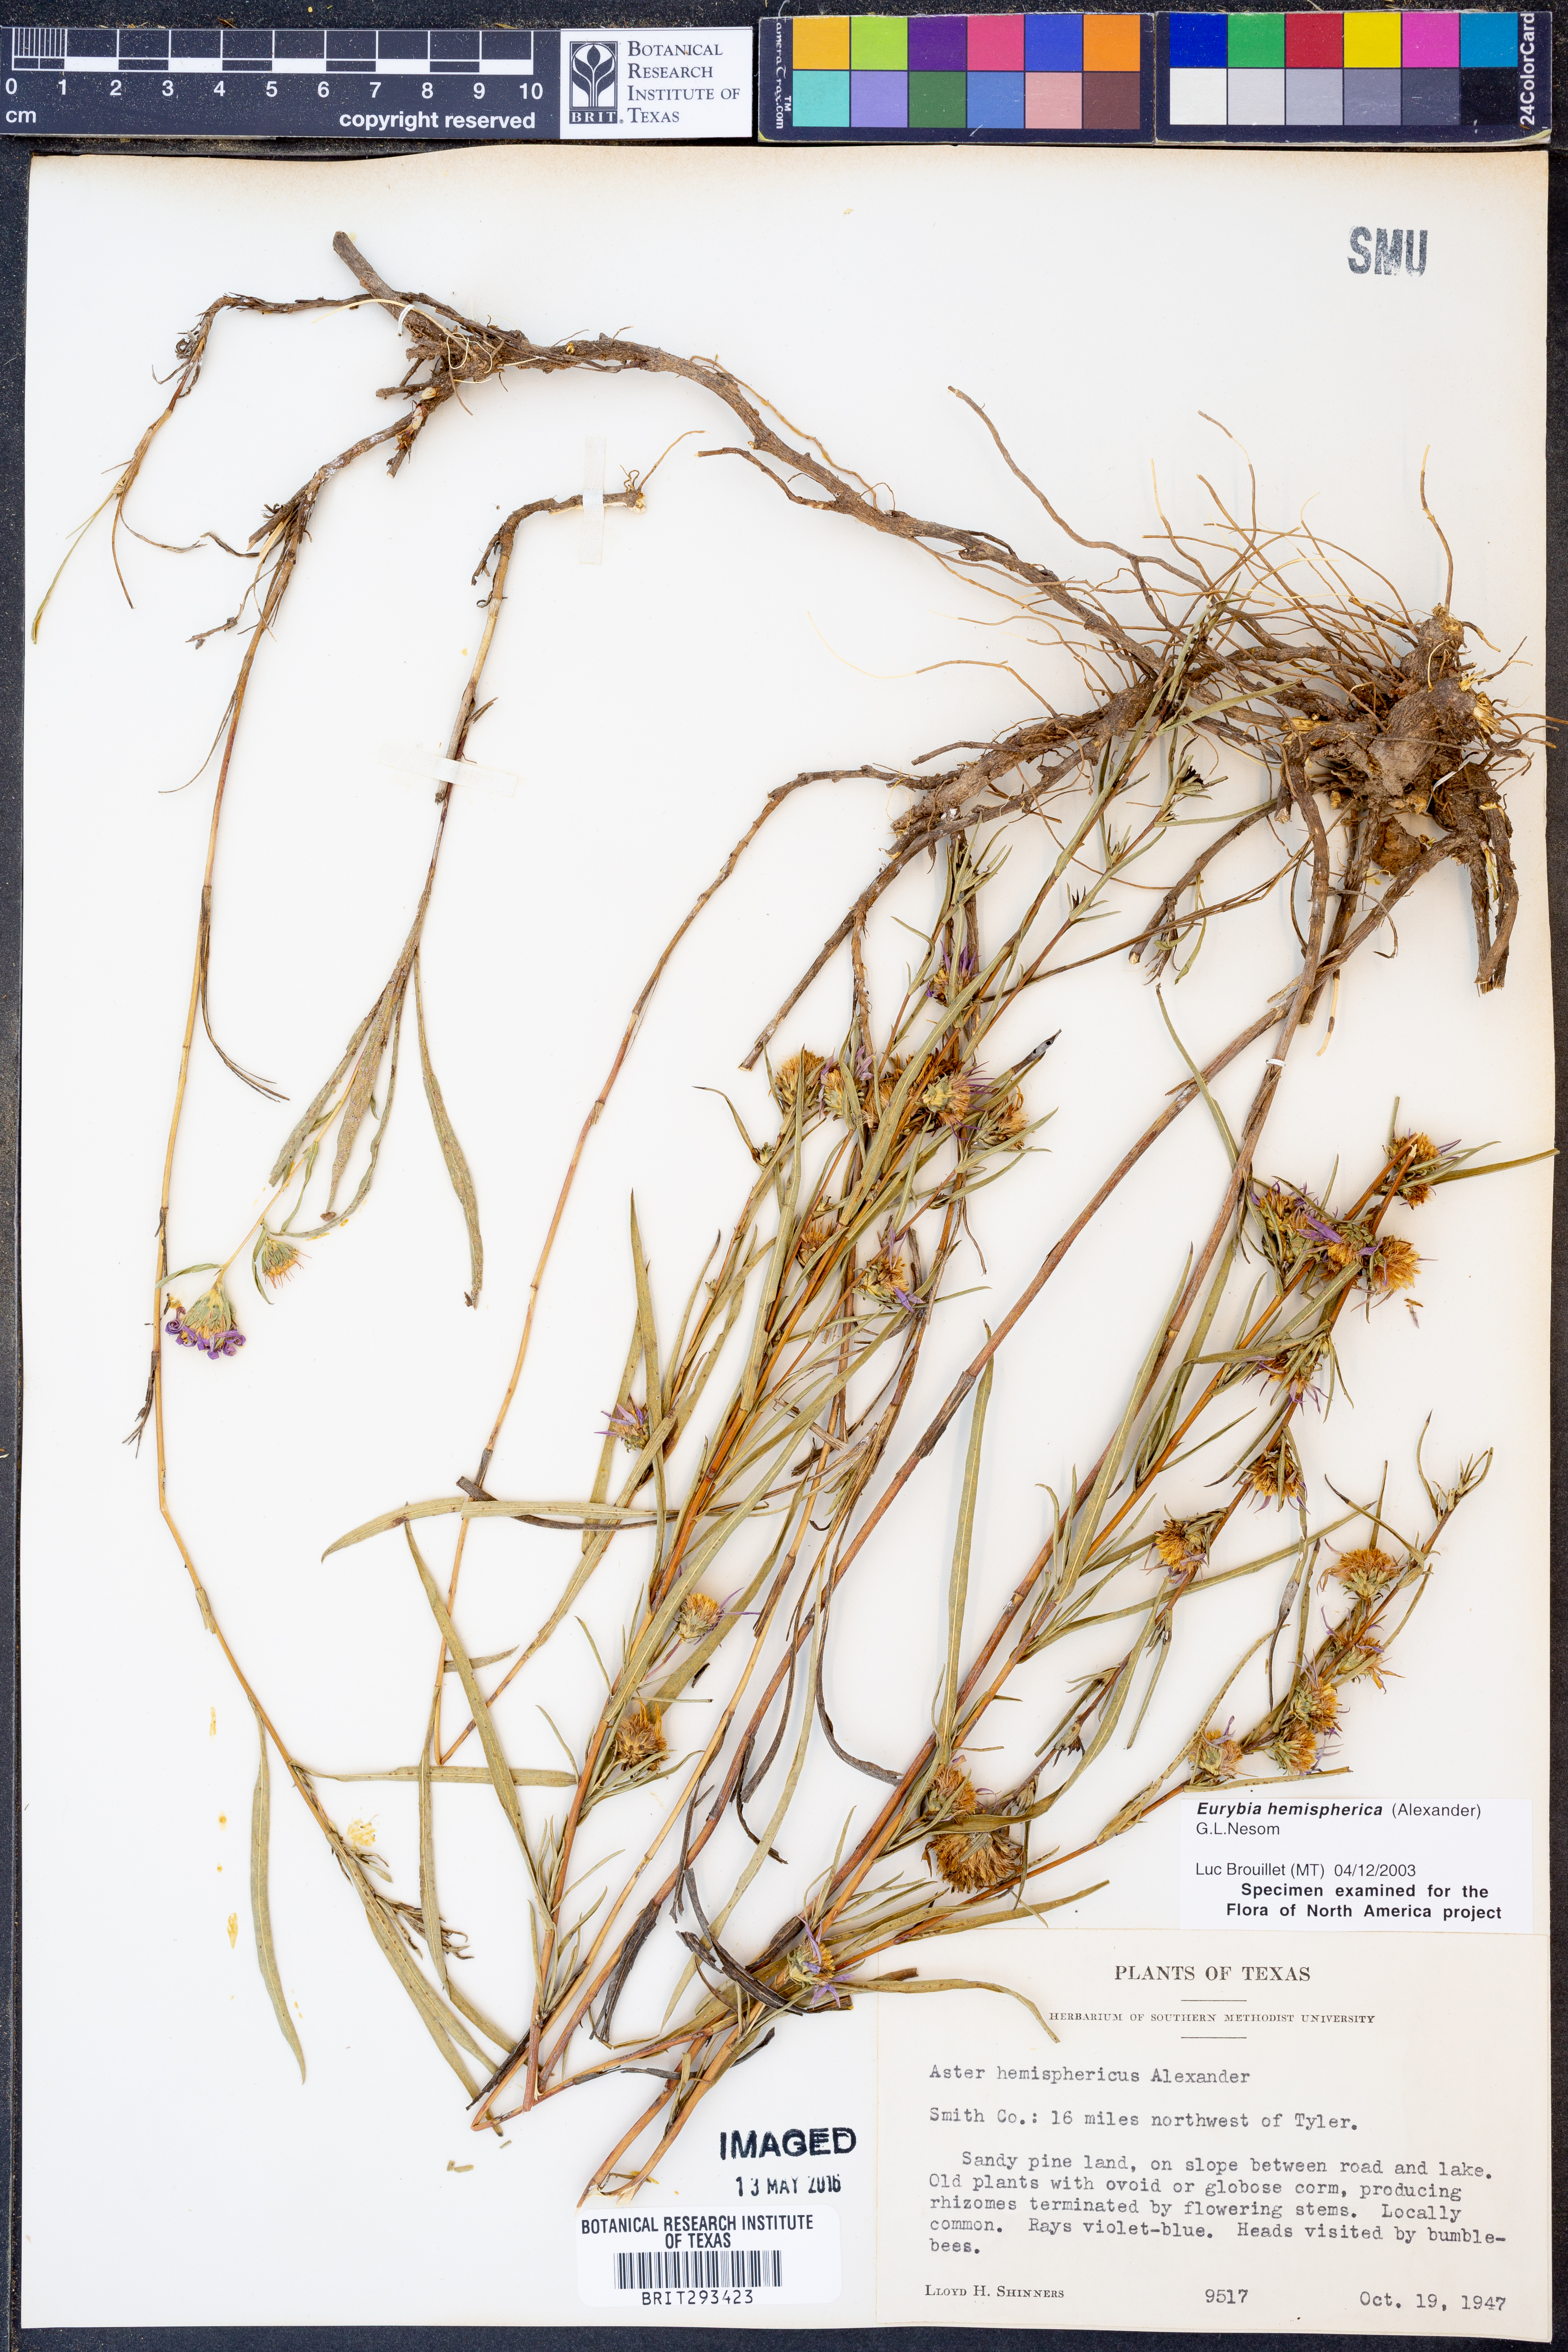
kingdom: Plantae
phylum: Tracheophyta
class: Magnoliopsida
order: Asterales
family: Asteraceae
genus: Eurybia
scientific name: Eurybia hemispherica
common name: Showy aster
